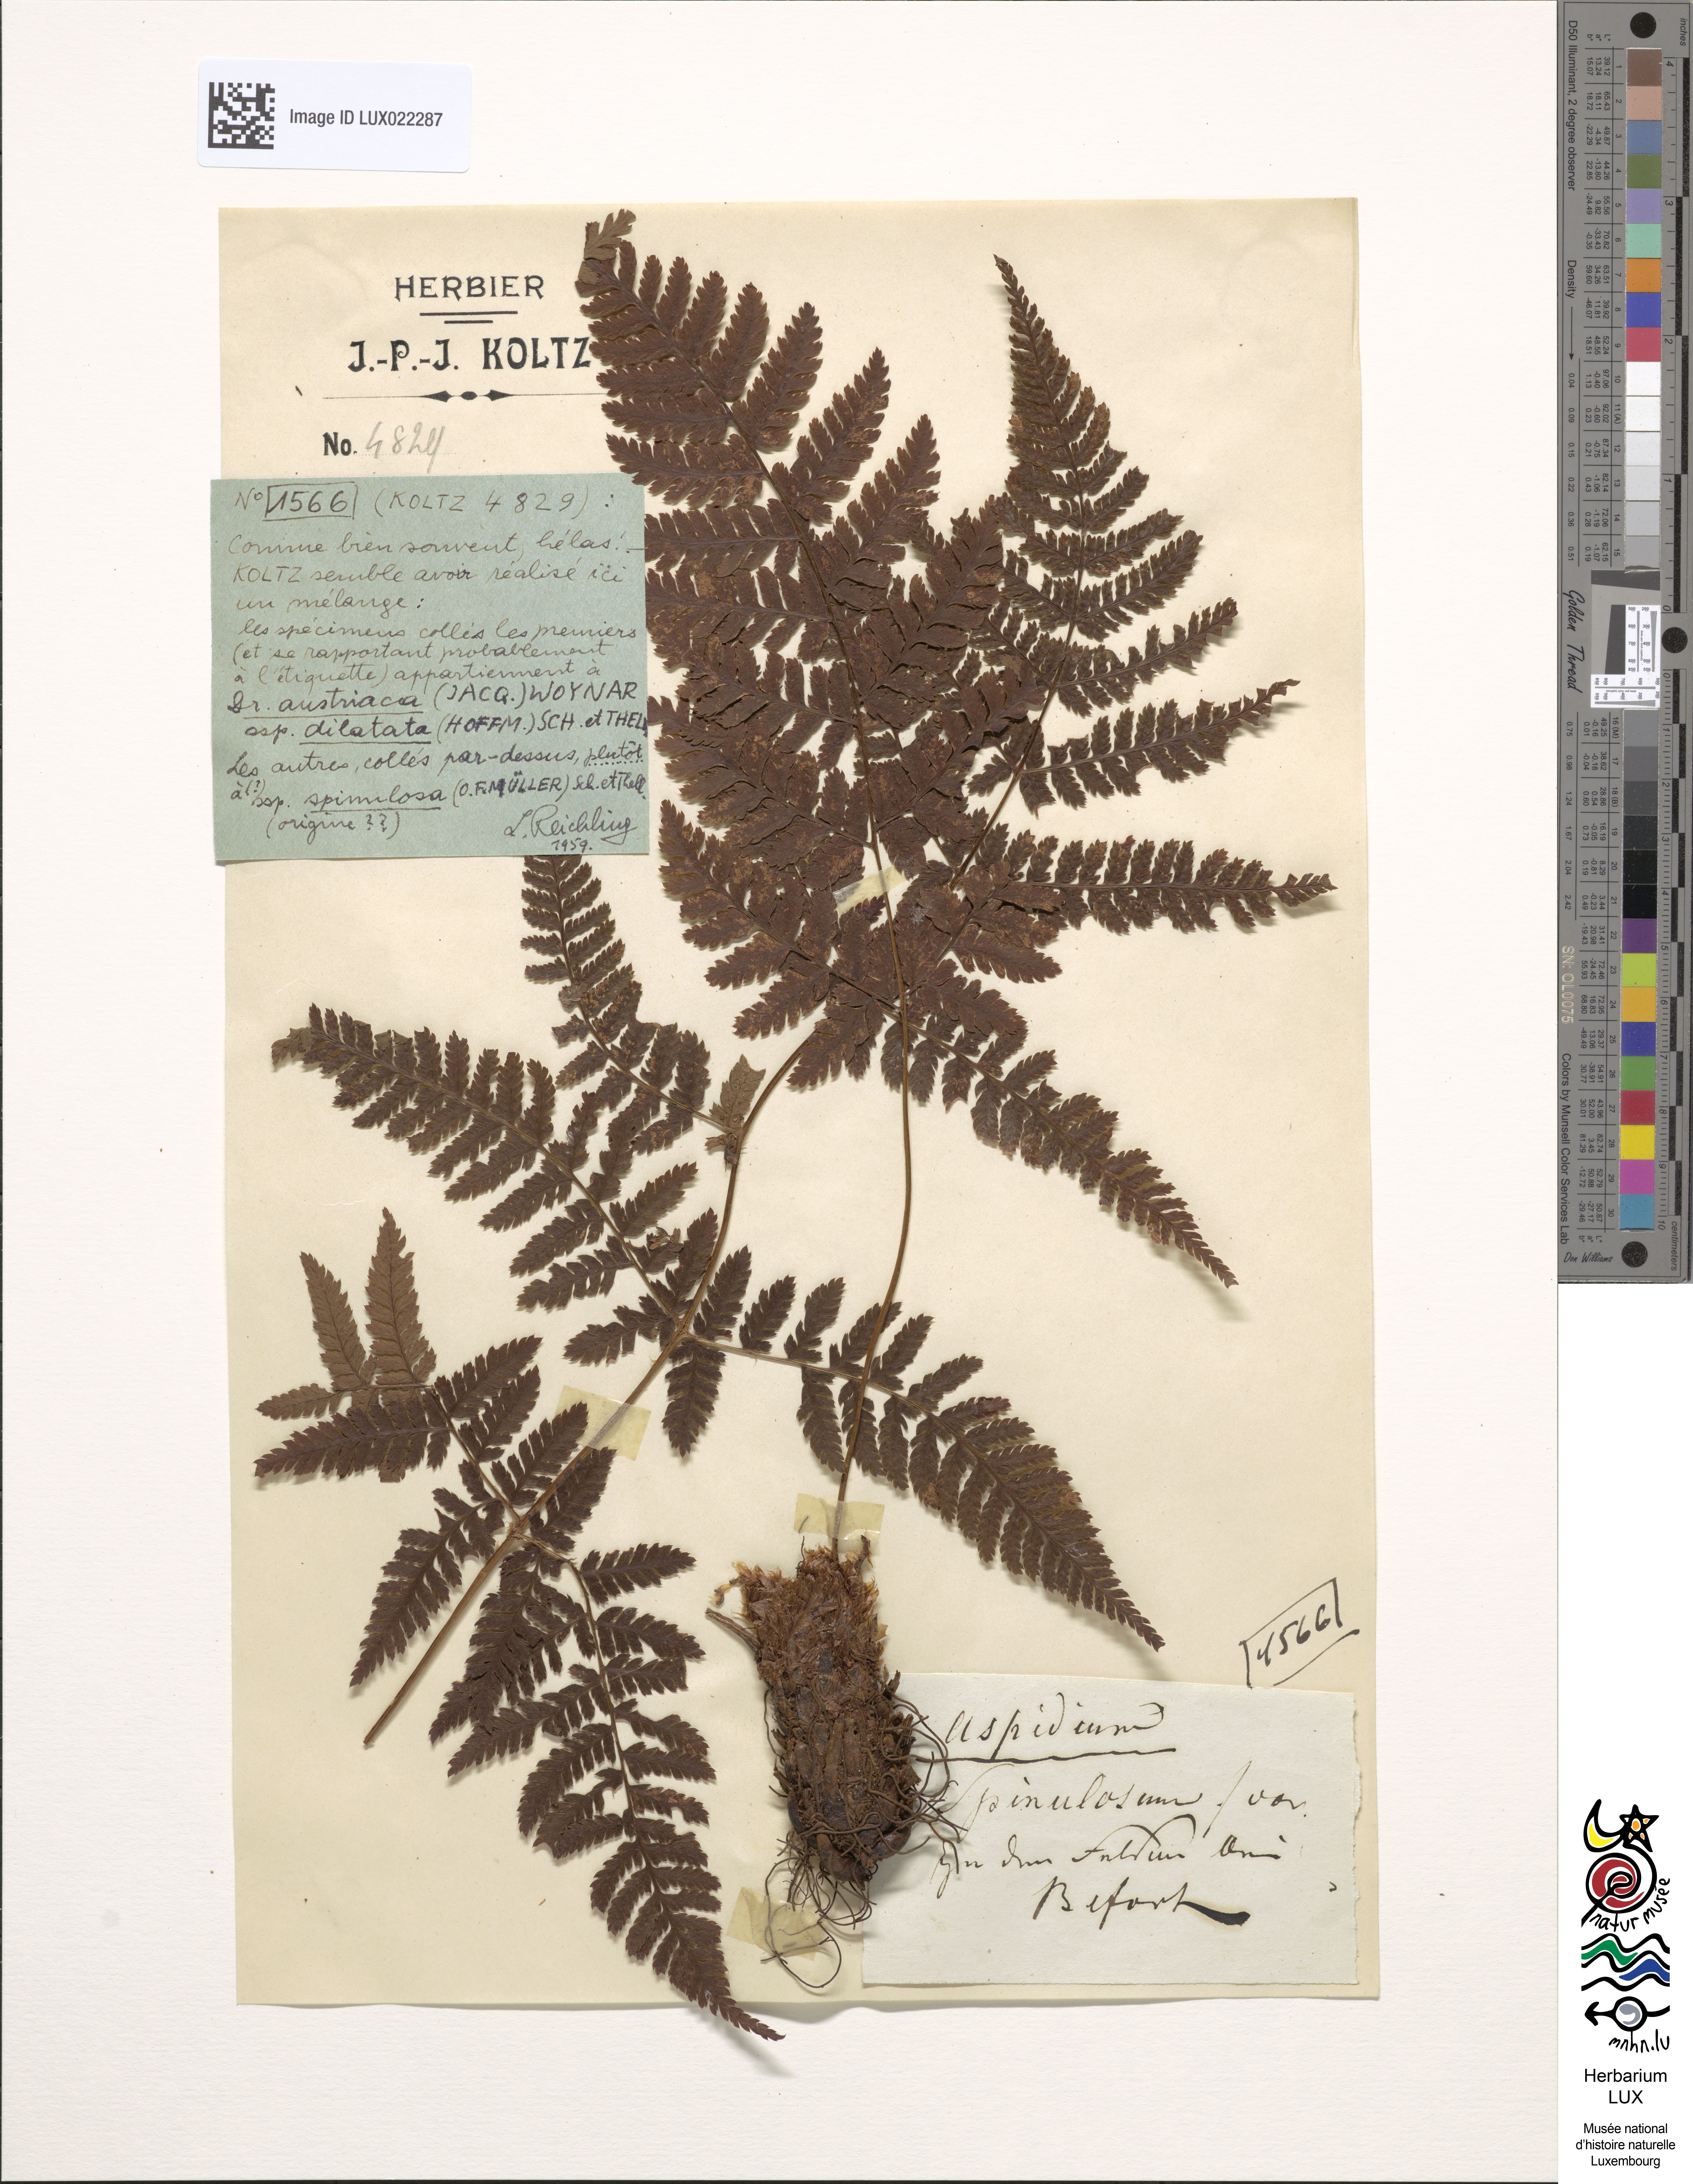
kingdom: Plantae
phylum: Tracheophyta
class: Polypodiopsida
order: Polypodiales
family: Dryopteridaceae
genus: Dryopteris
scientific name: Dryopteris carthusiana
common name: Narrow buckler-fern
